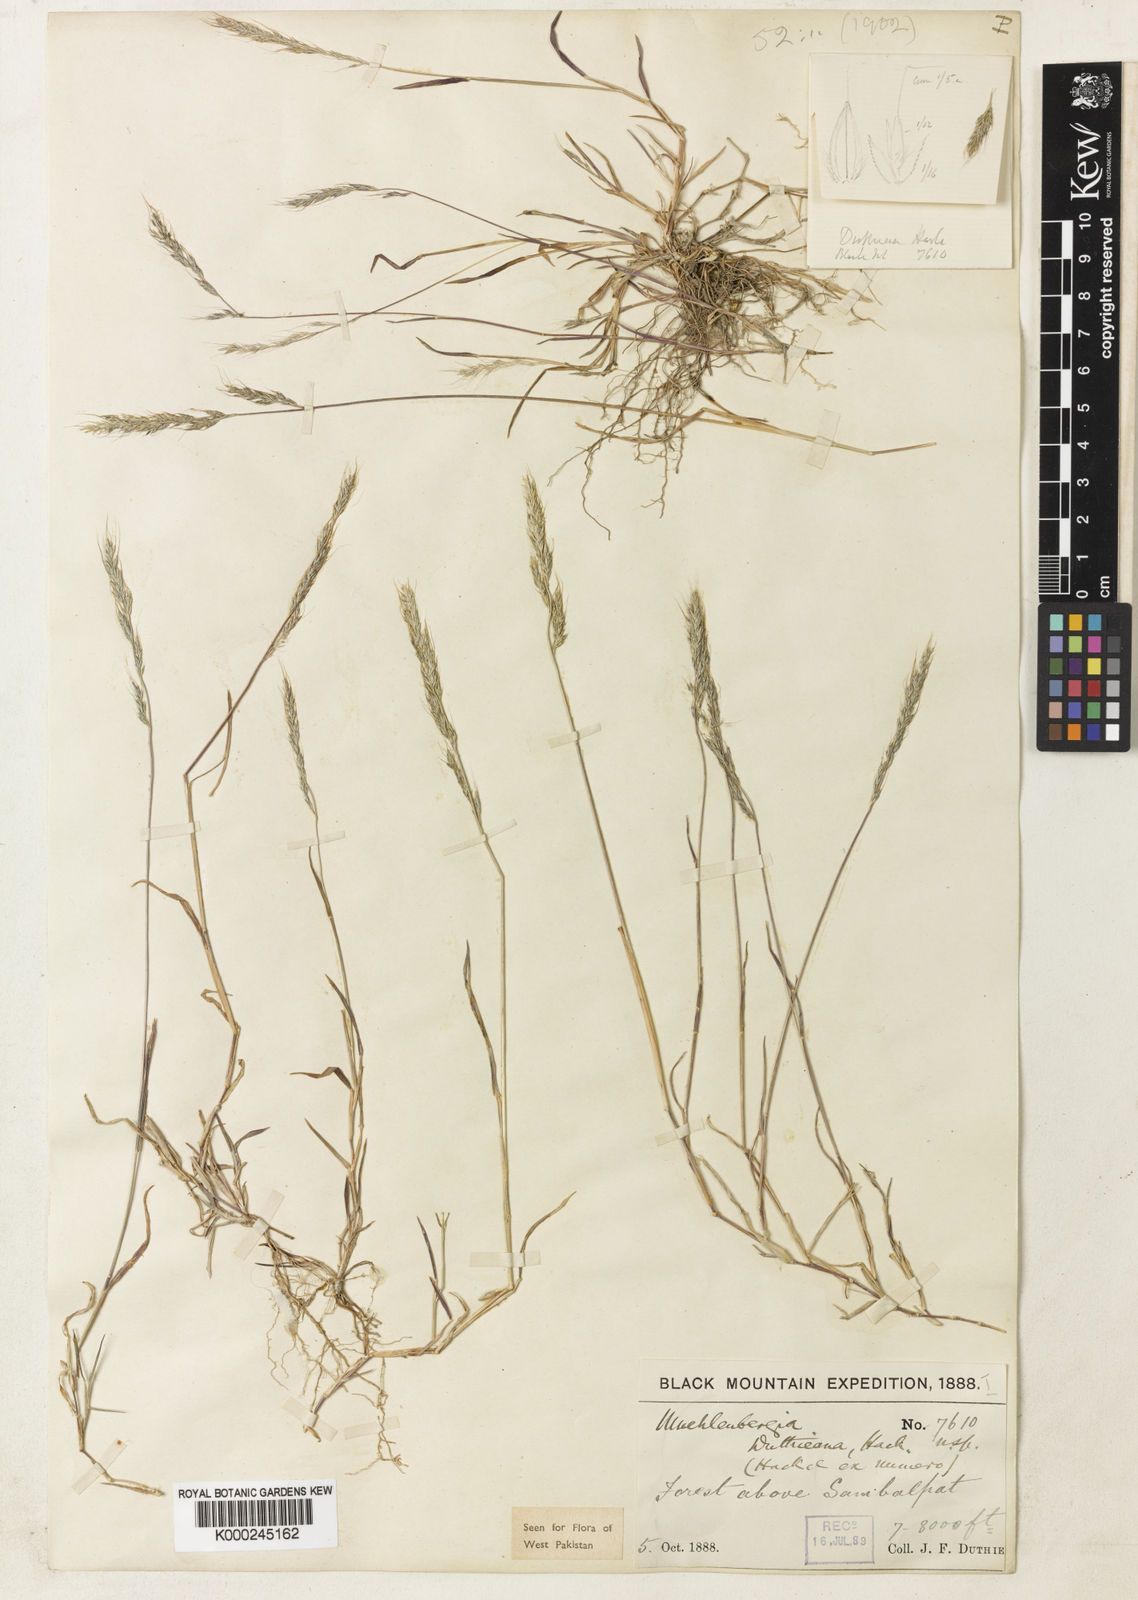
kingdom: Plantae
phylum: Tracheophyta
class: Liliopsida
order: Poales
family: Poaceae
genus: Muhlenbergia
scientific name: Muhlenbergia duthieana
